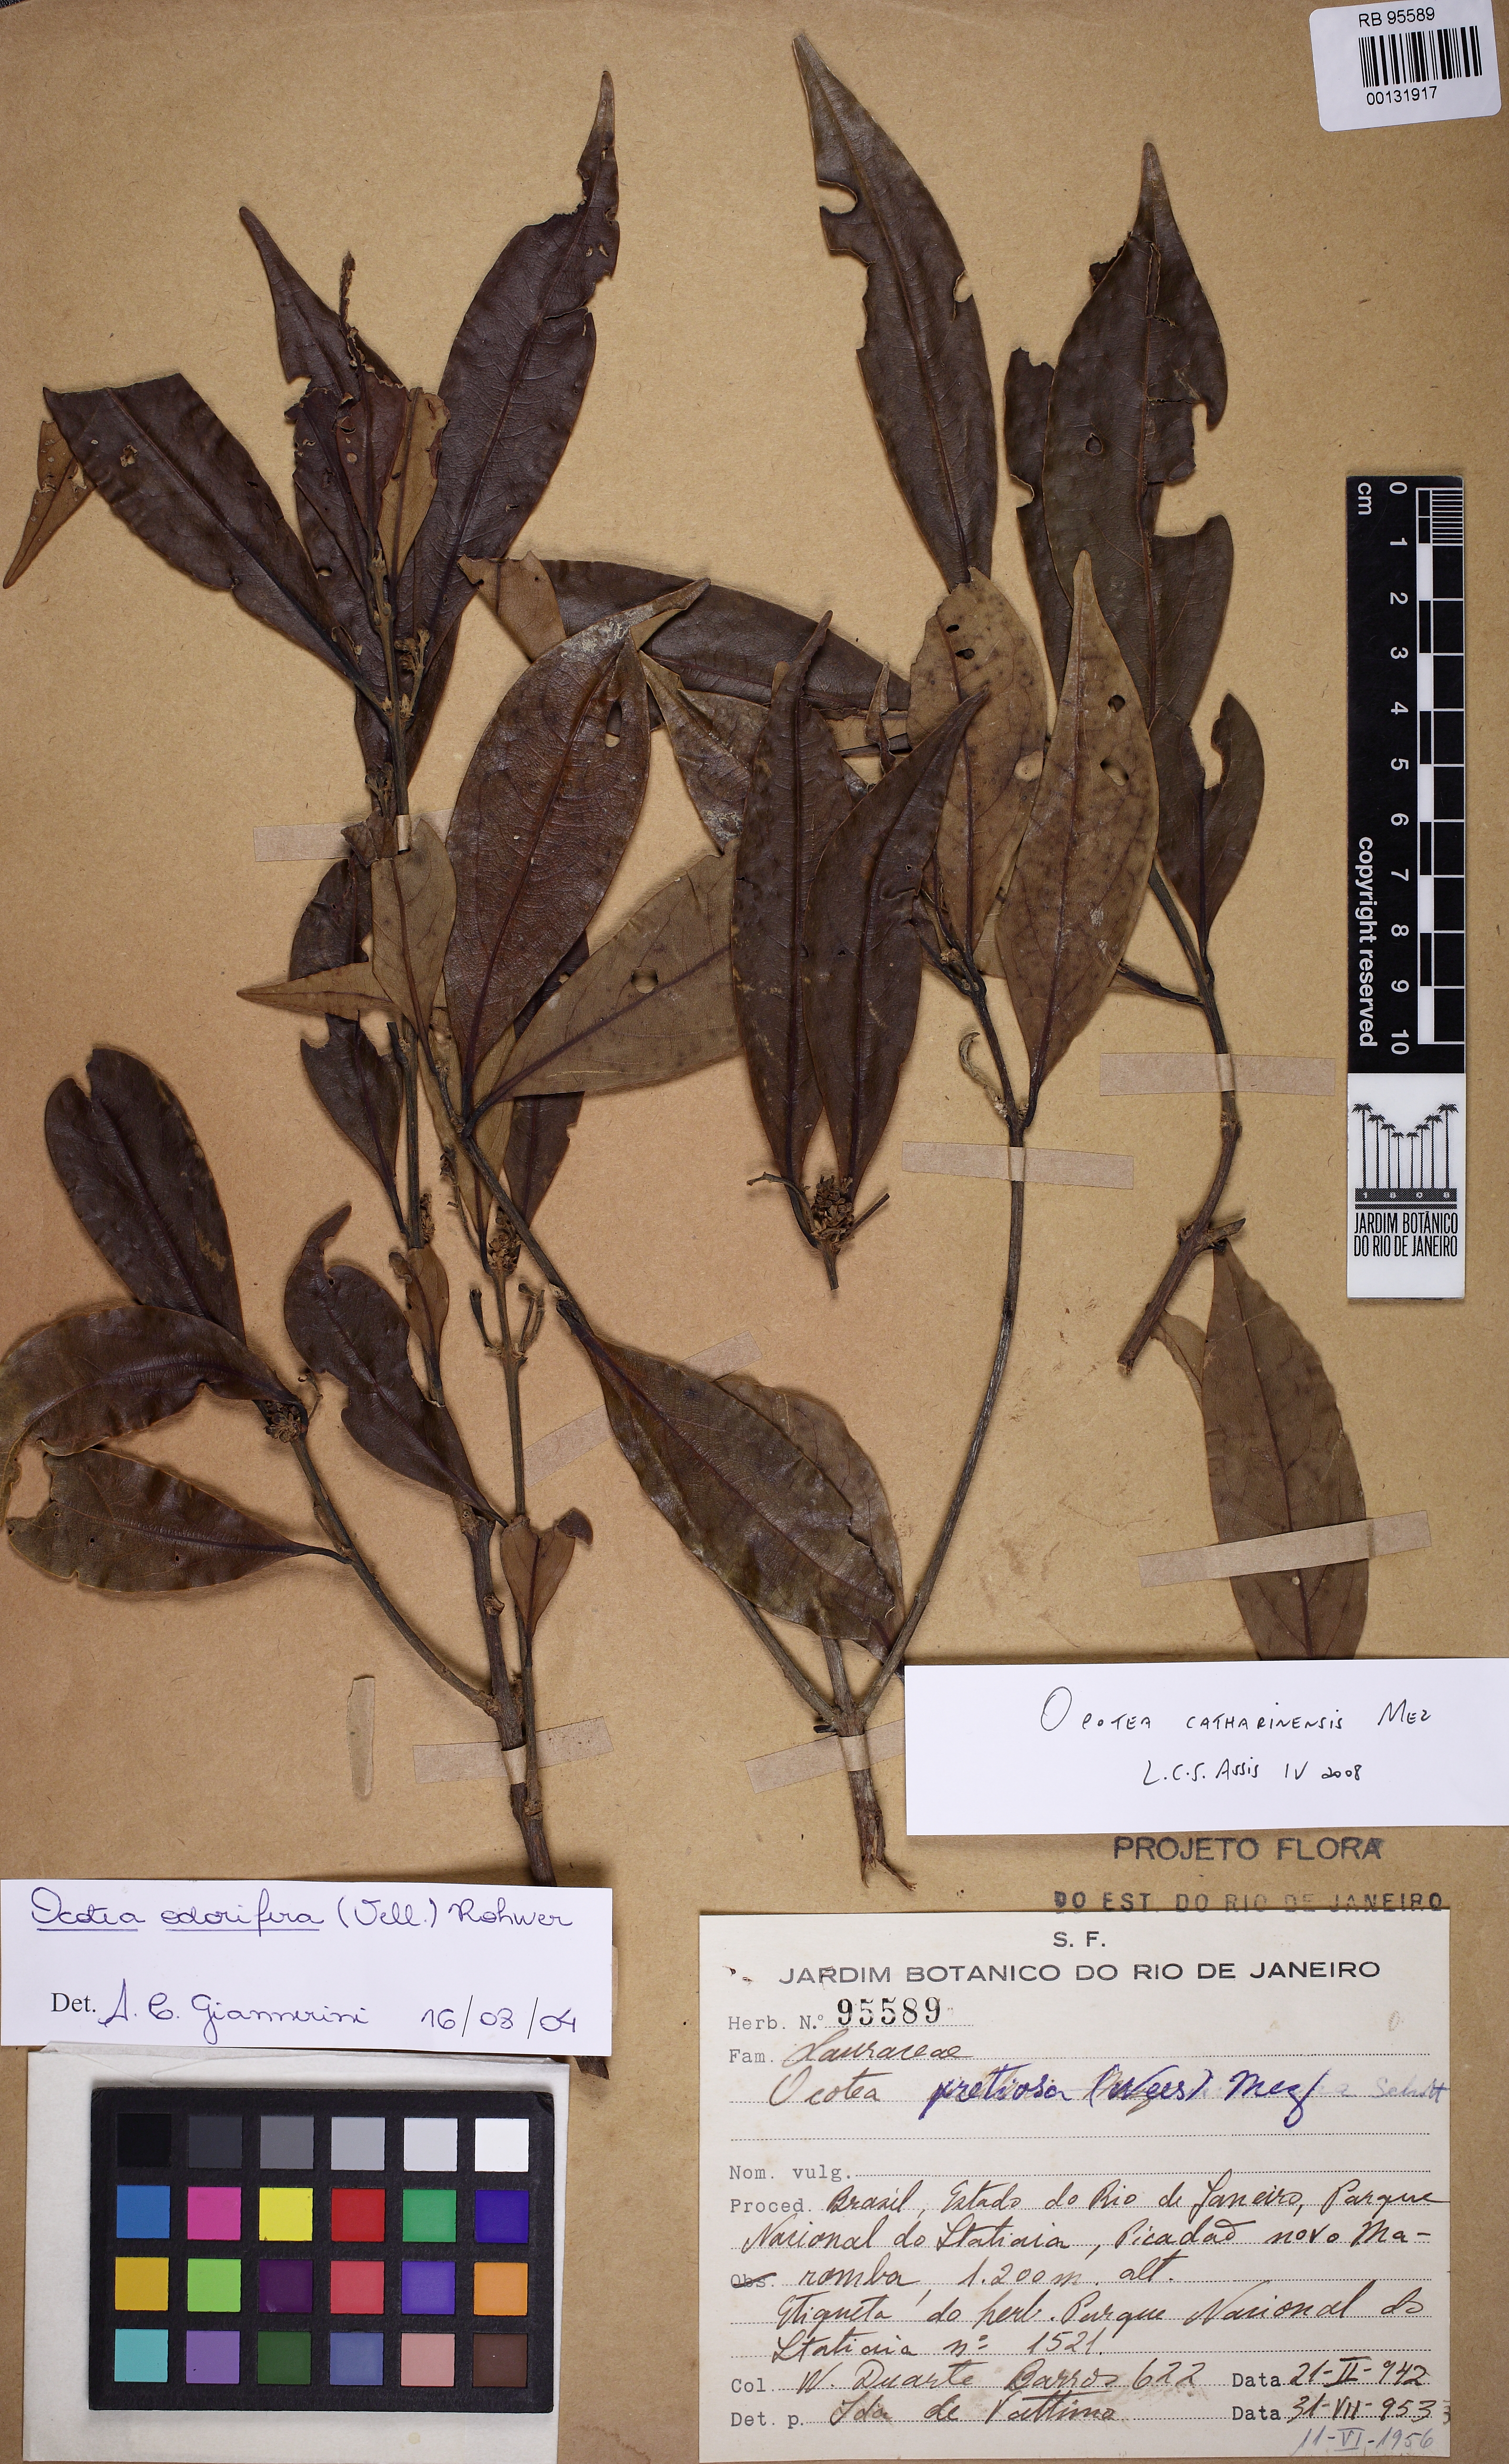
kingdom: Plantae
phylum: Tracheophyta
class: Magnoliopsida
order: Laurales
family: Lauraceae
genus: Ocotea
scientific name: Ocotea catharinensis
